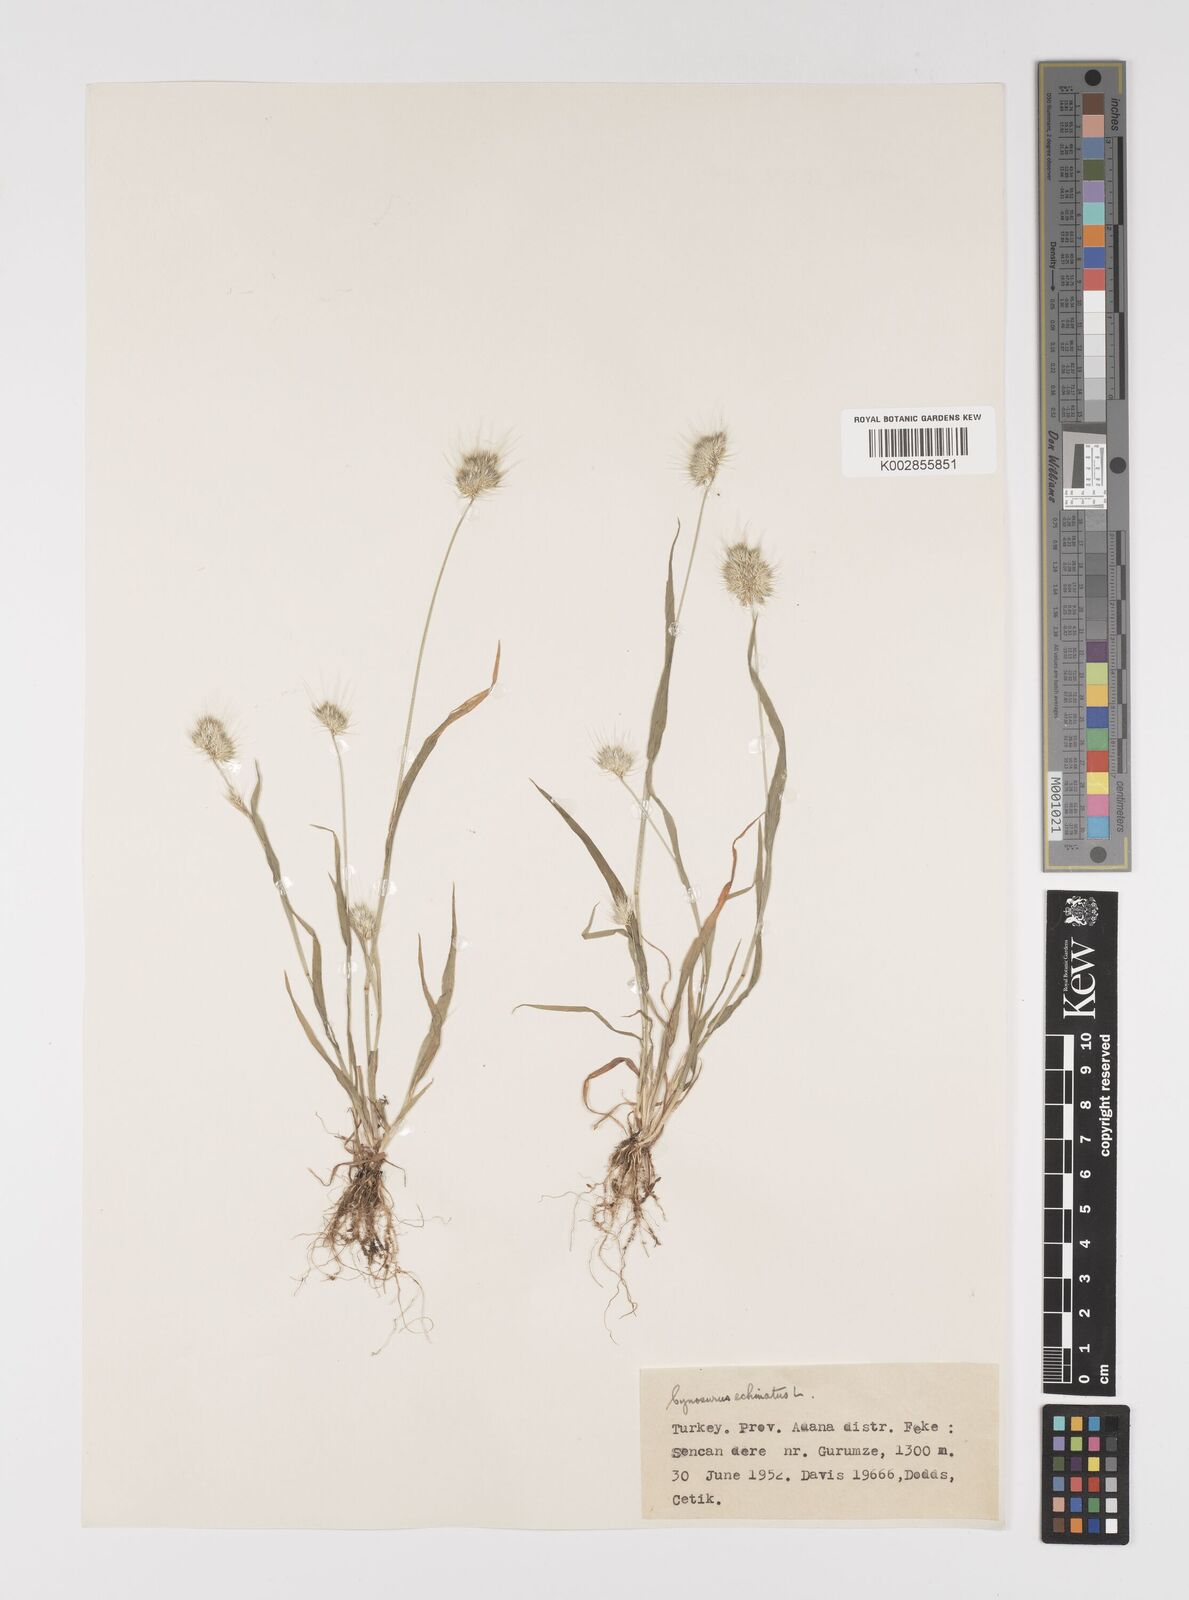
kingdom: Plantae
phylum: Tracheophyta
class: Liliopsida
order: Poales
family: Poaceae
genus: Cynosurus
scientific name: Cynosurus echinatus
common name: Rough dog's-tail
